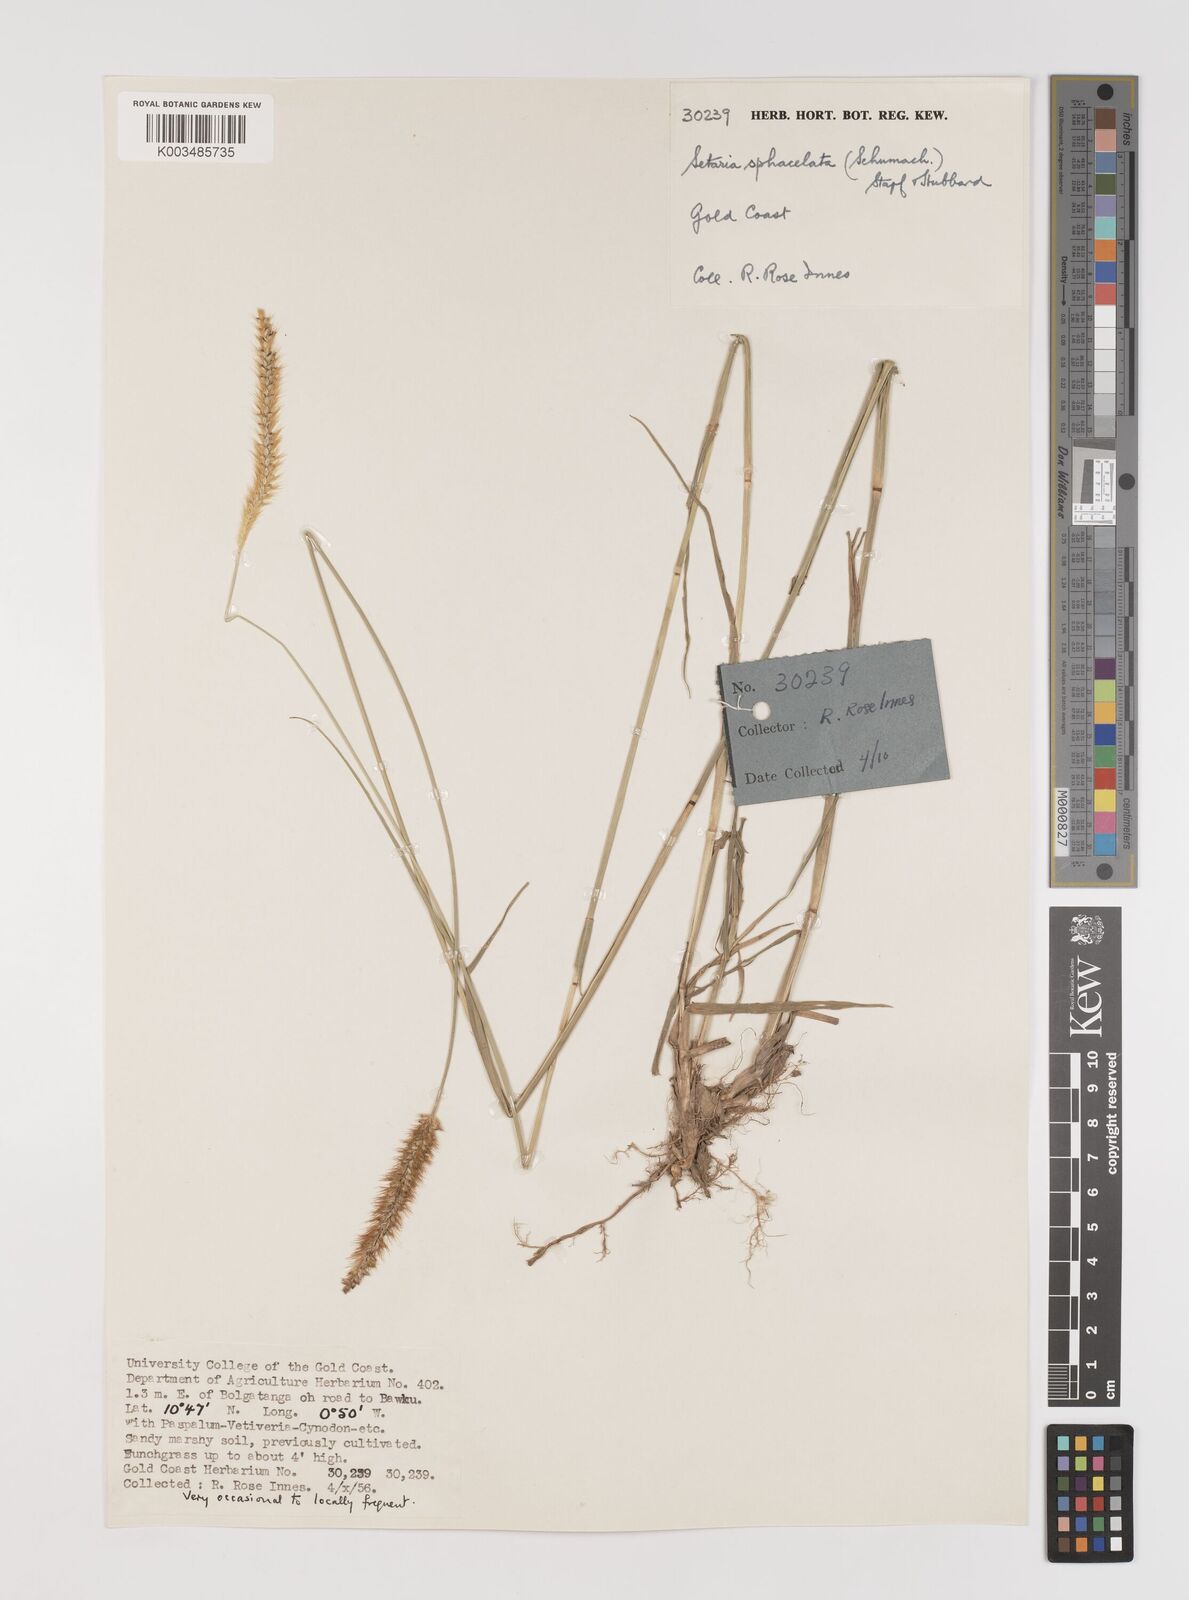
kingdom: Plantae
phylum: Tracheophyta
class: Liliopsida
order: Poales
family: Poaceae
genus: Setaria
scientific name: Setaria sphacelata
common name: African bristlegrass
